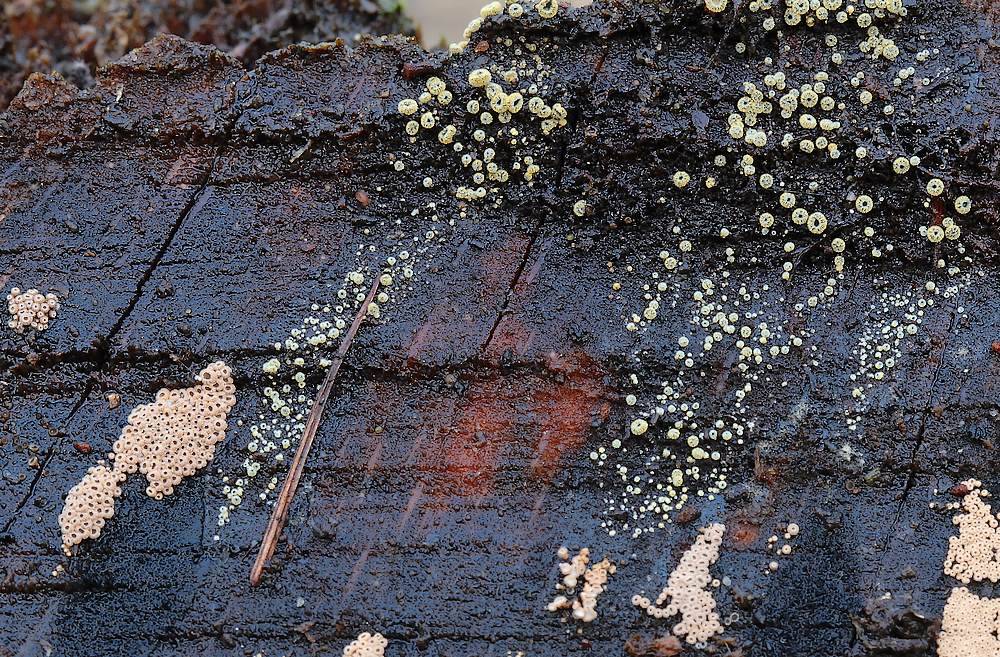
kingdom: Fungi
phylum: Ascomycota
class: Leotiomycetes
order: Helotiales
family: Lachnaceae
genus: Neodasyscypha
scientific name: Neodasyscypha cerina
